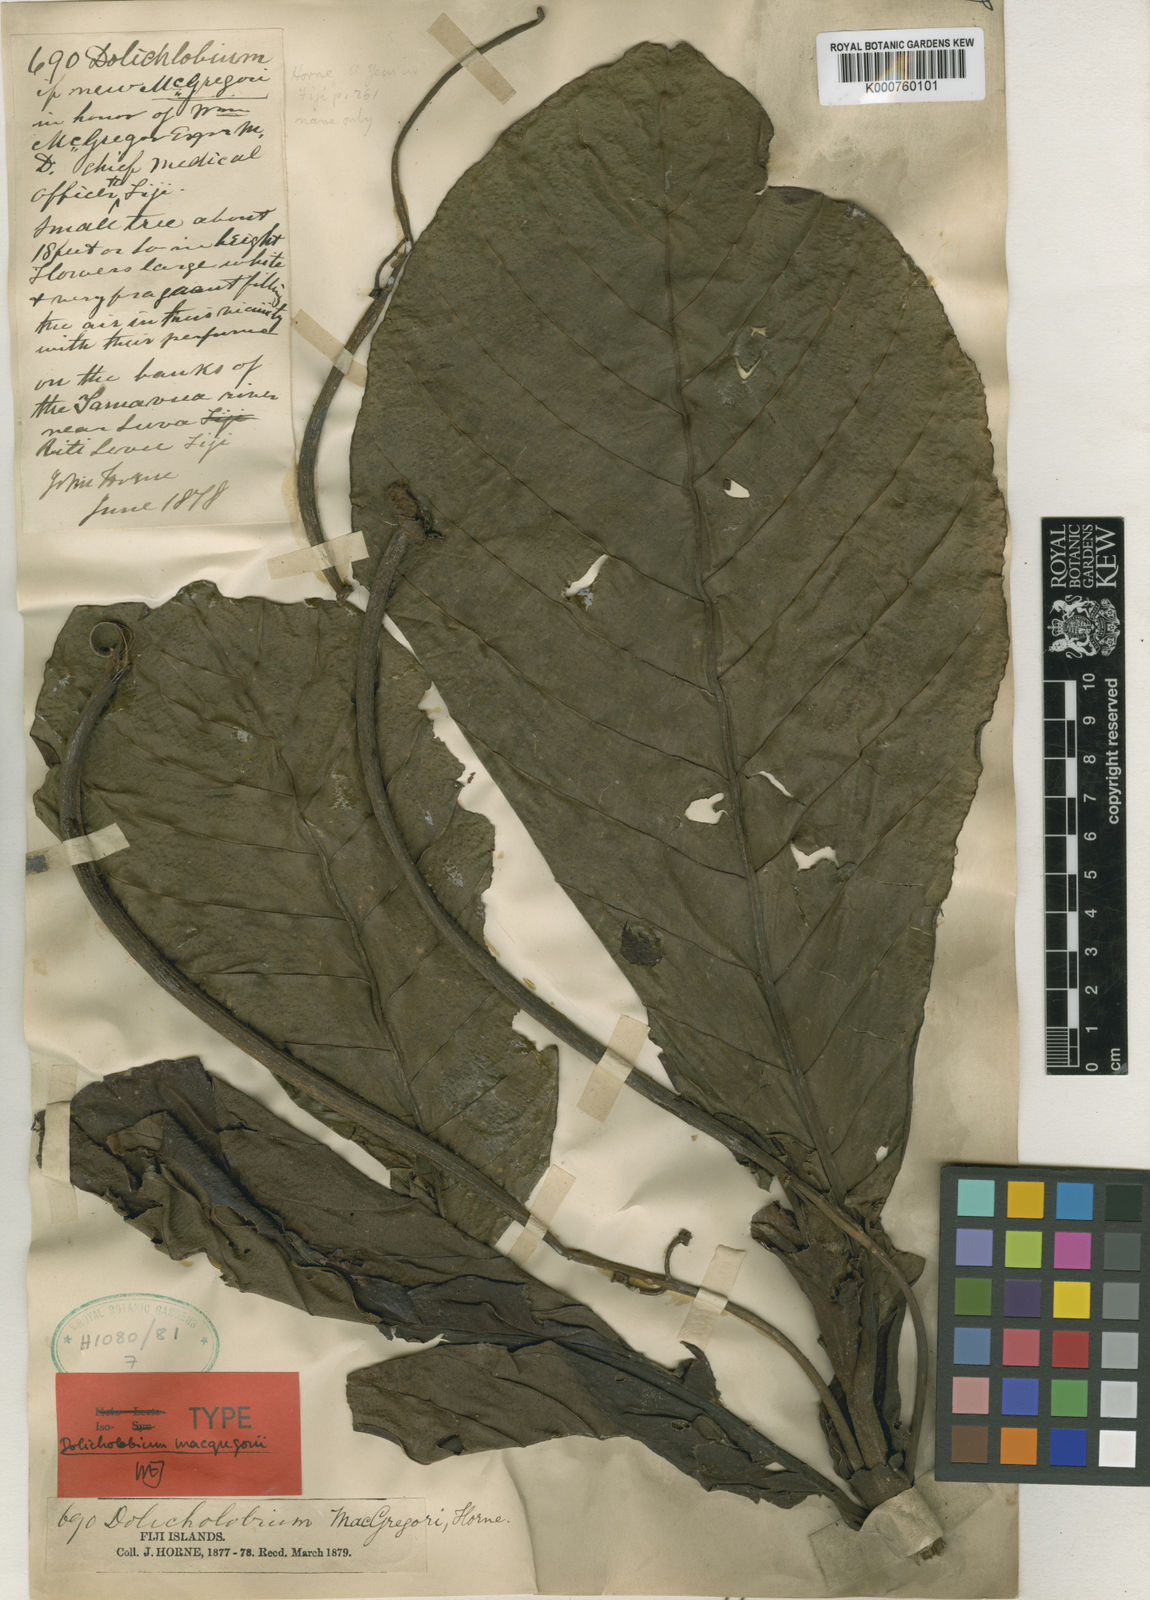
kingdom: Plantae
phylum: Tracheophyta
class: Magnoliopsida
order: Gentianales
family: Rubiaceae
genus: Dolicholobium
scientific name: Dolicholobium macgregorii
